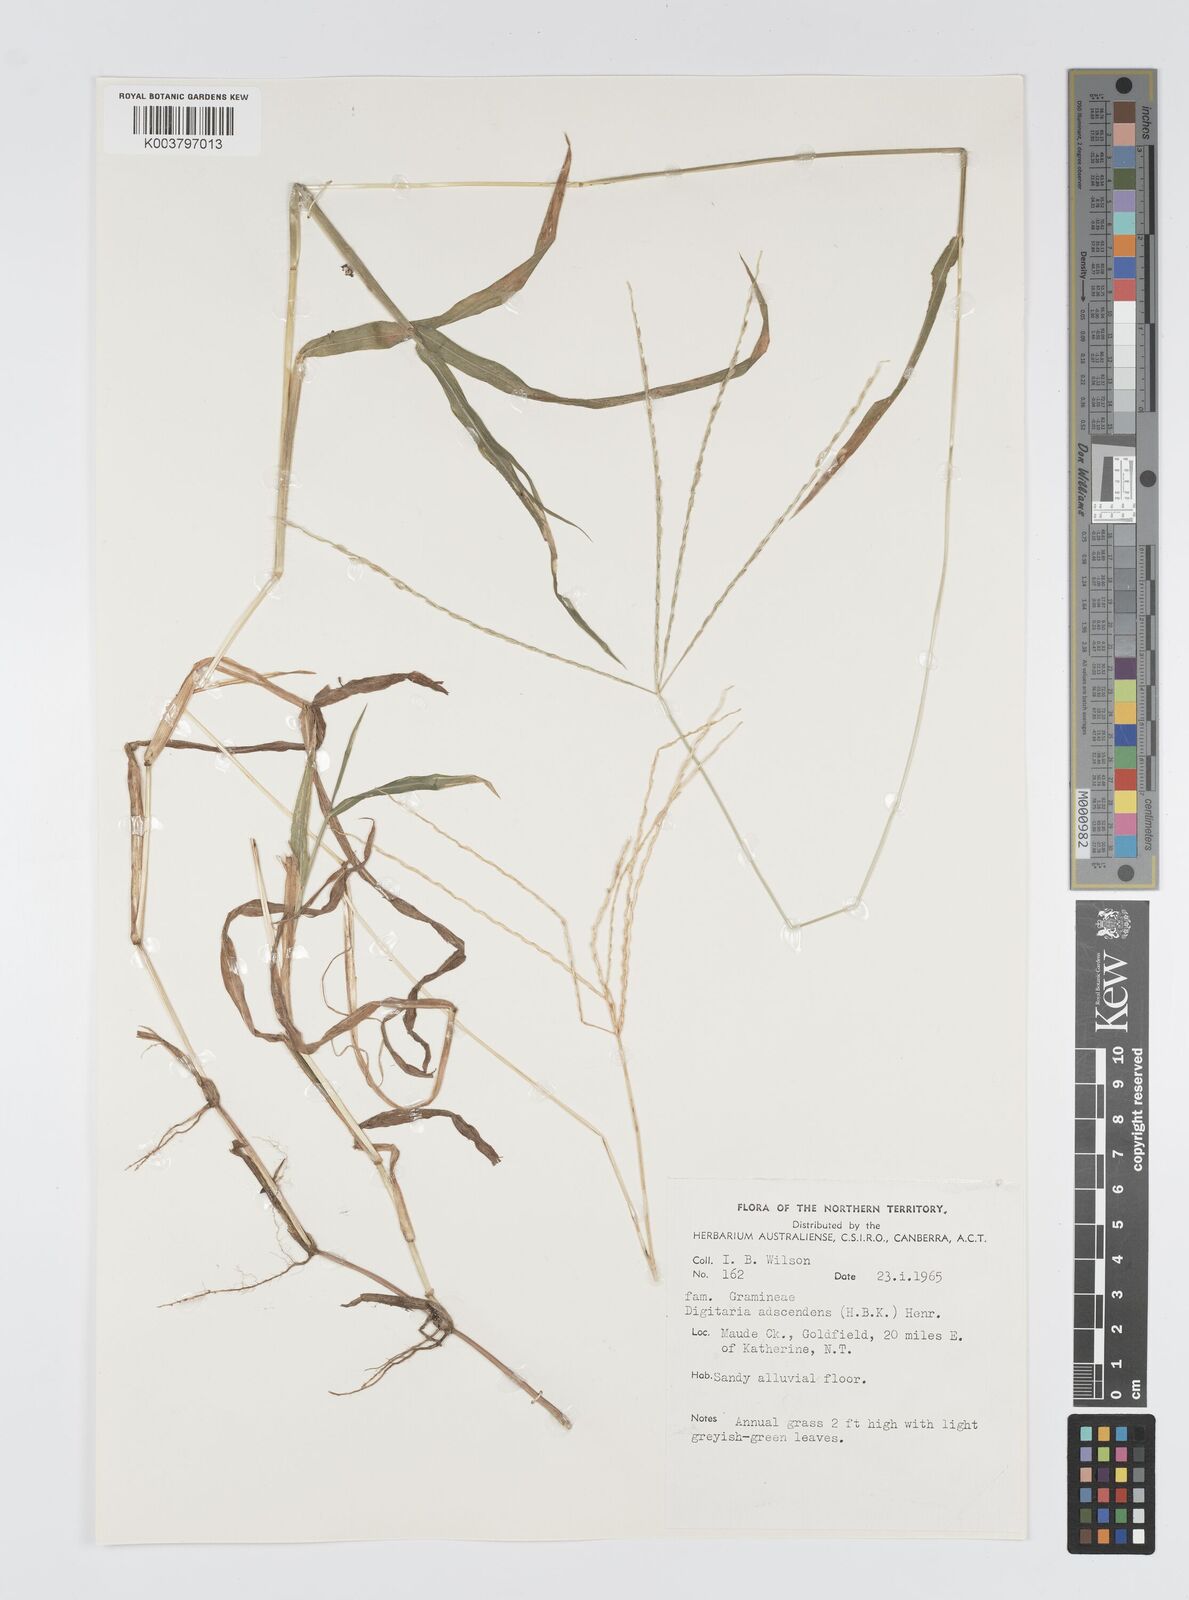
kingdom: Plantae
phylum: Tracheophyta
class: Liliopsida
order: Poales
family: Poaceae
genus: Digitaria
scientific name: Digitaria ciliaris
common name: Tropical finger-grass
